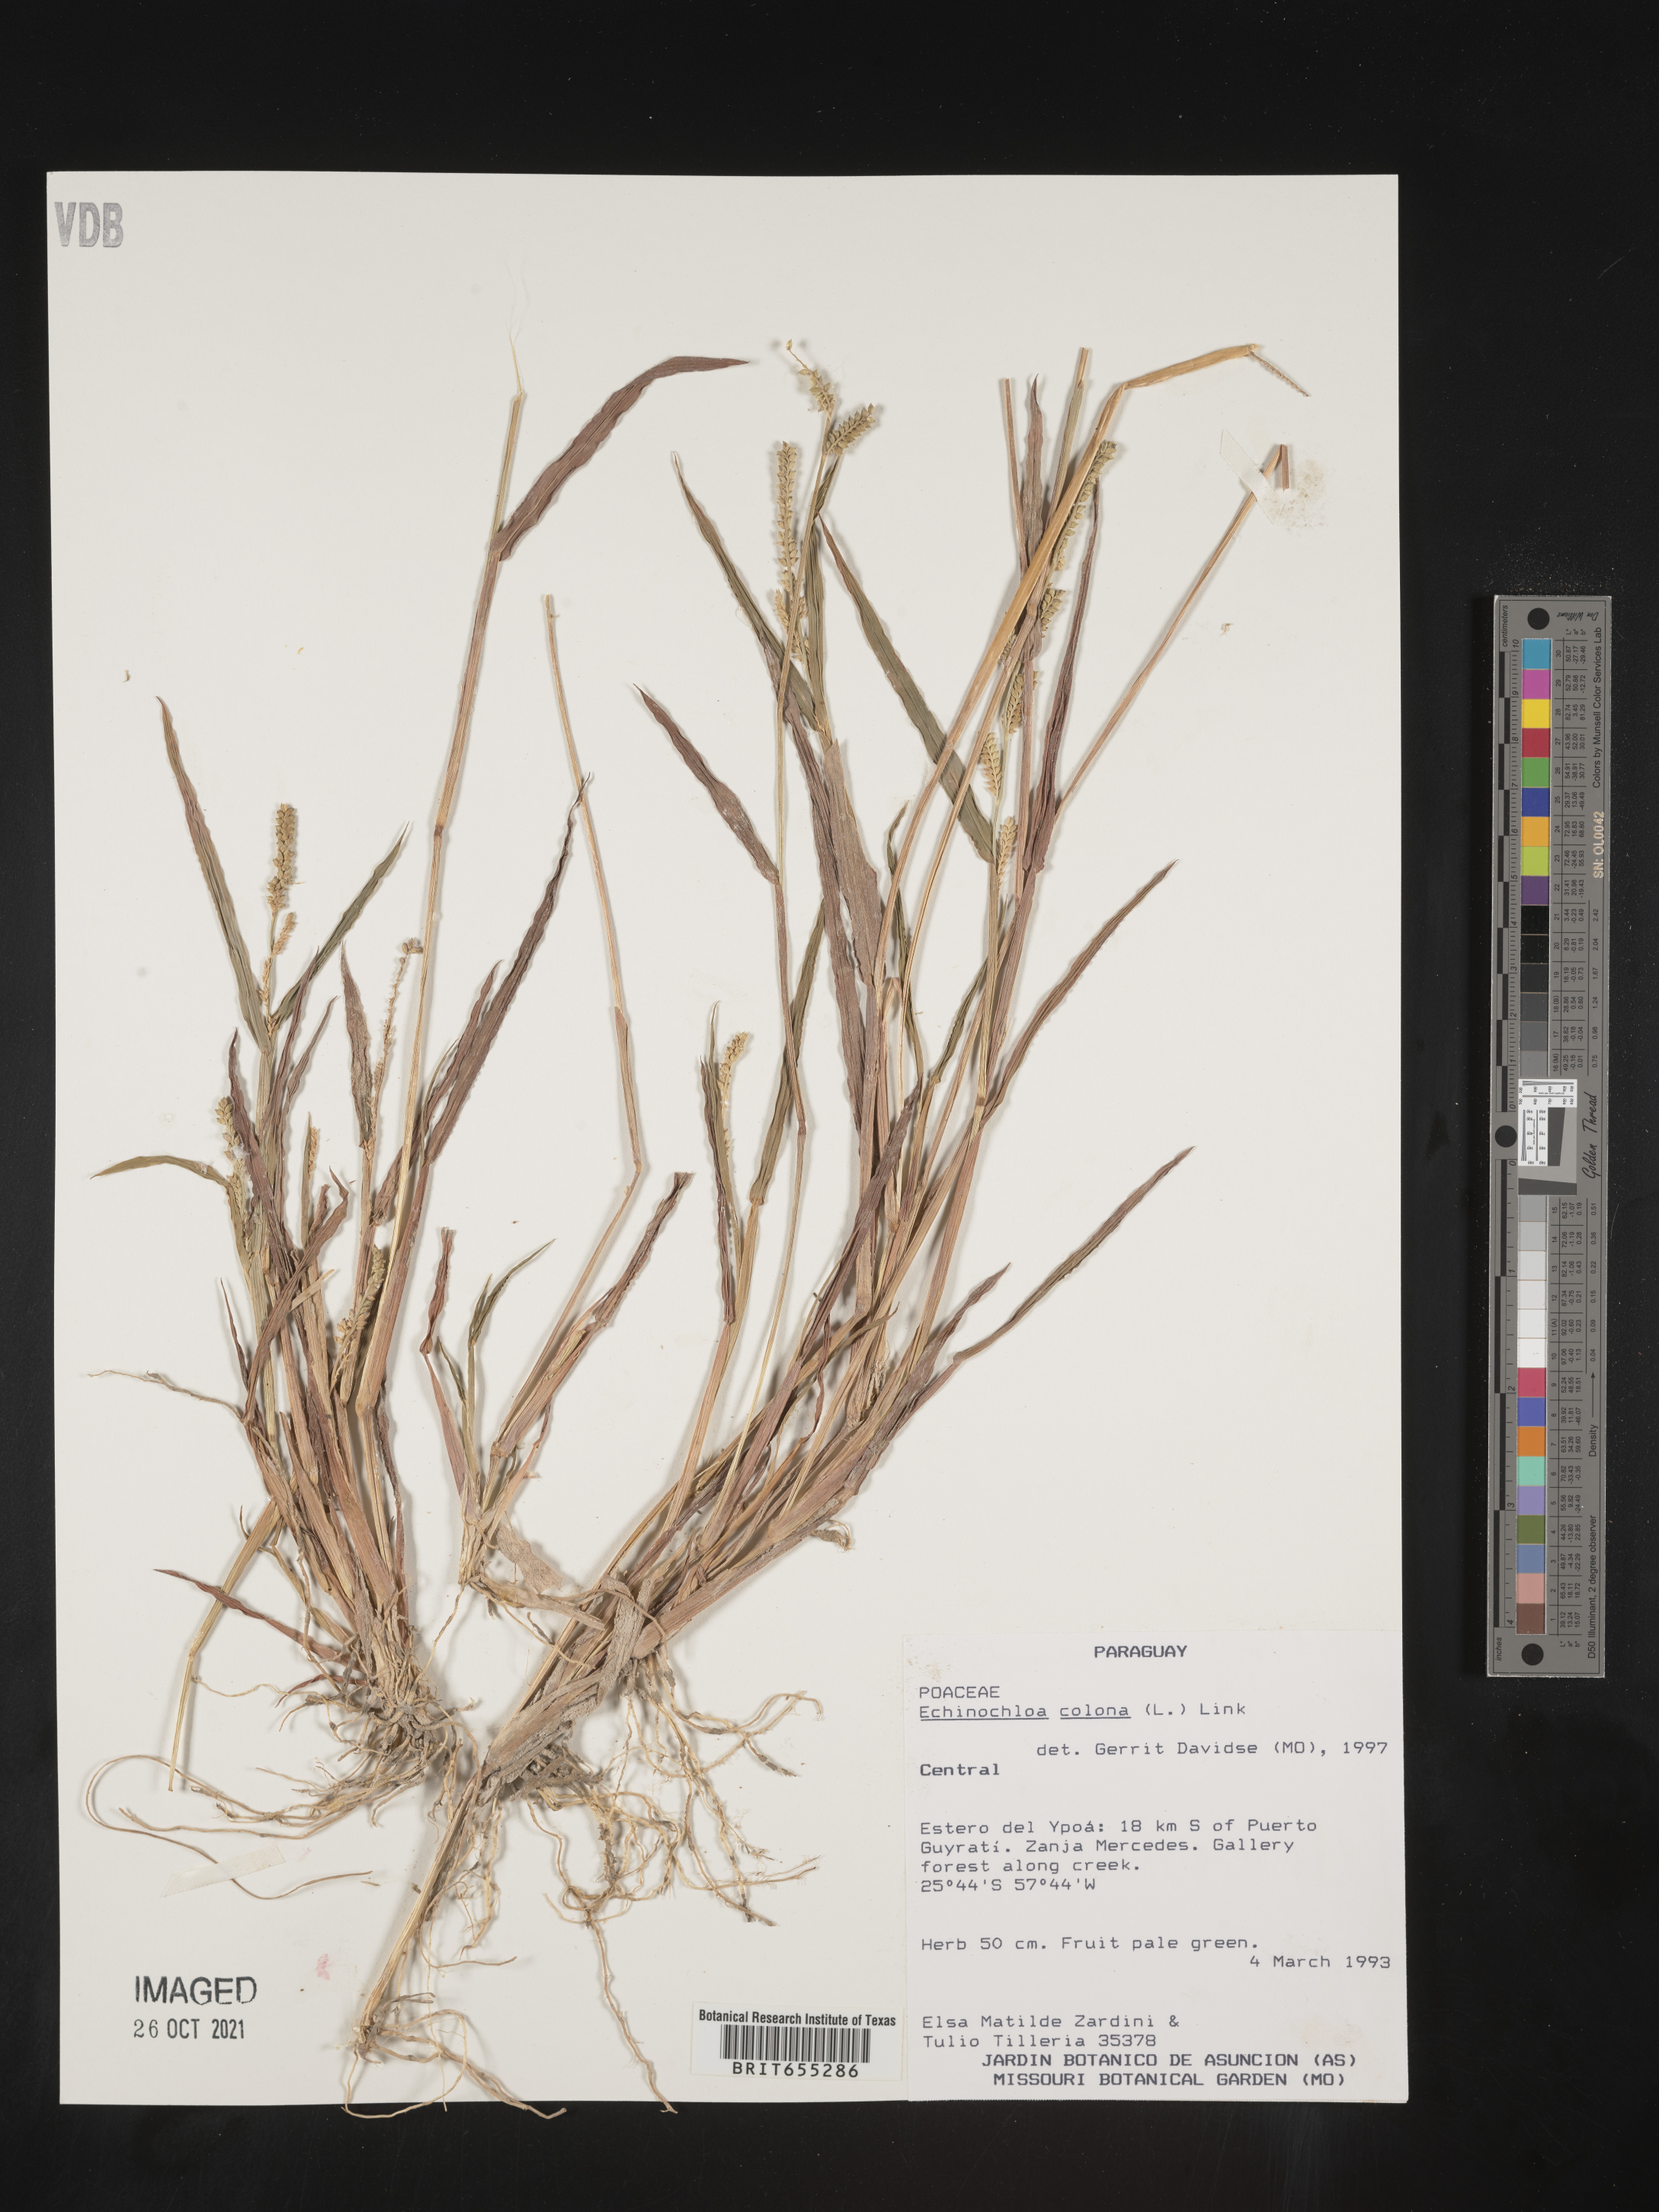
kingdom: Plantae
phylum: Tracheophyta
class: Liliopsida
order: Poales
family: Poaceae
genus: Echinochloa
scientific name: Echinochloa
